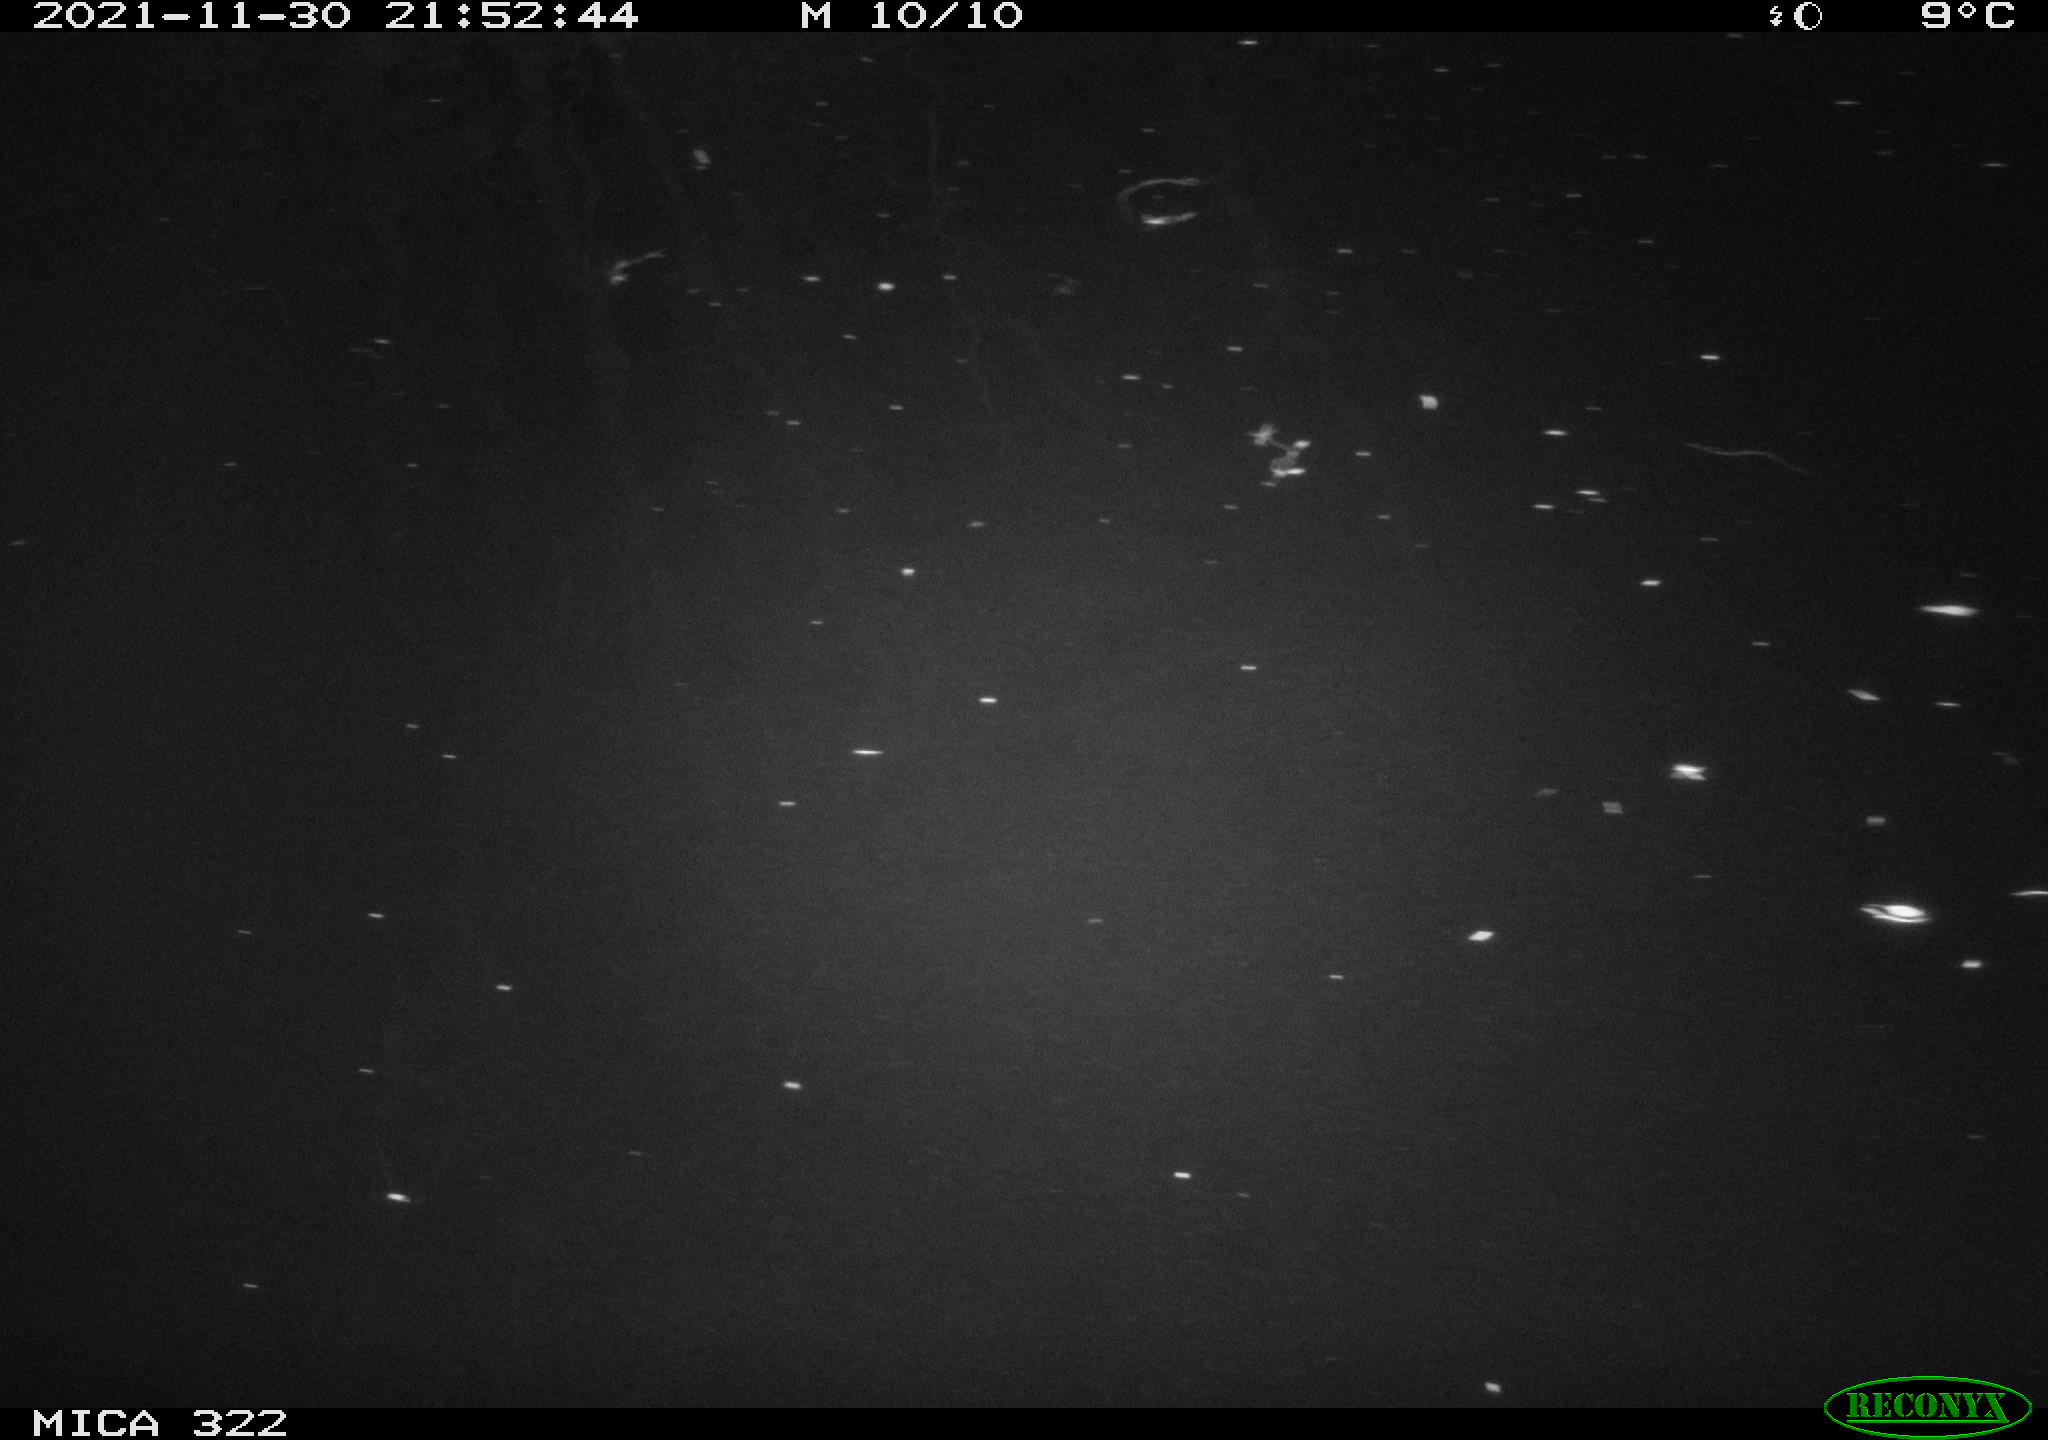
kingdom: Animalia
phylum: Chordata
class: Mammalia
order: Rodentia
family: Muridae
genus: Rattus
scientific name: Rattus norvegicus
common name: Brown rat
